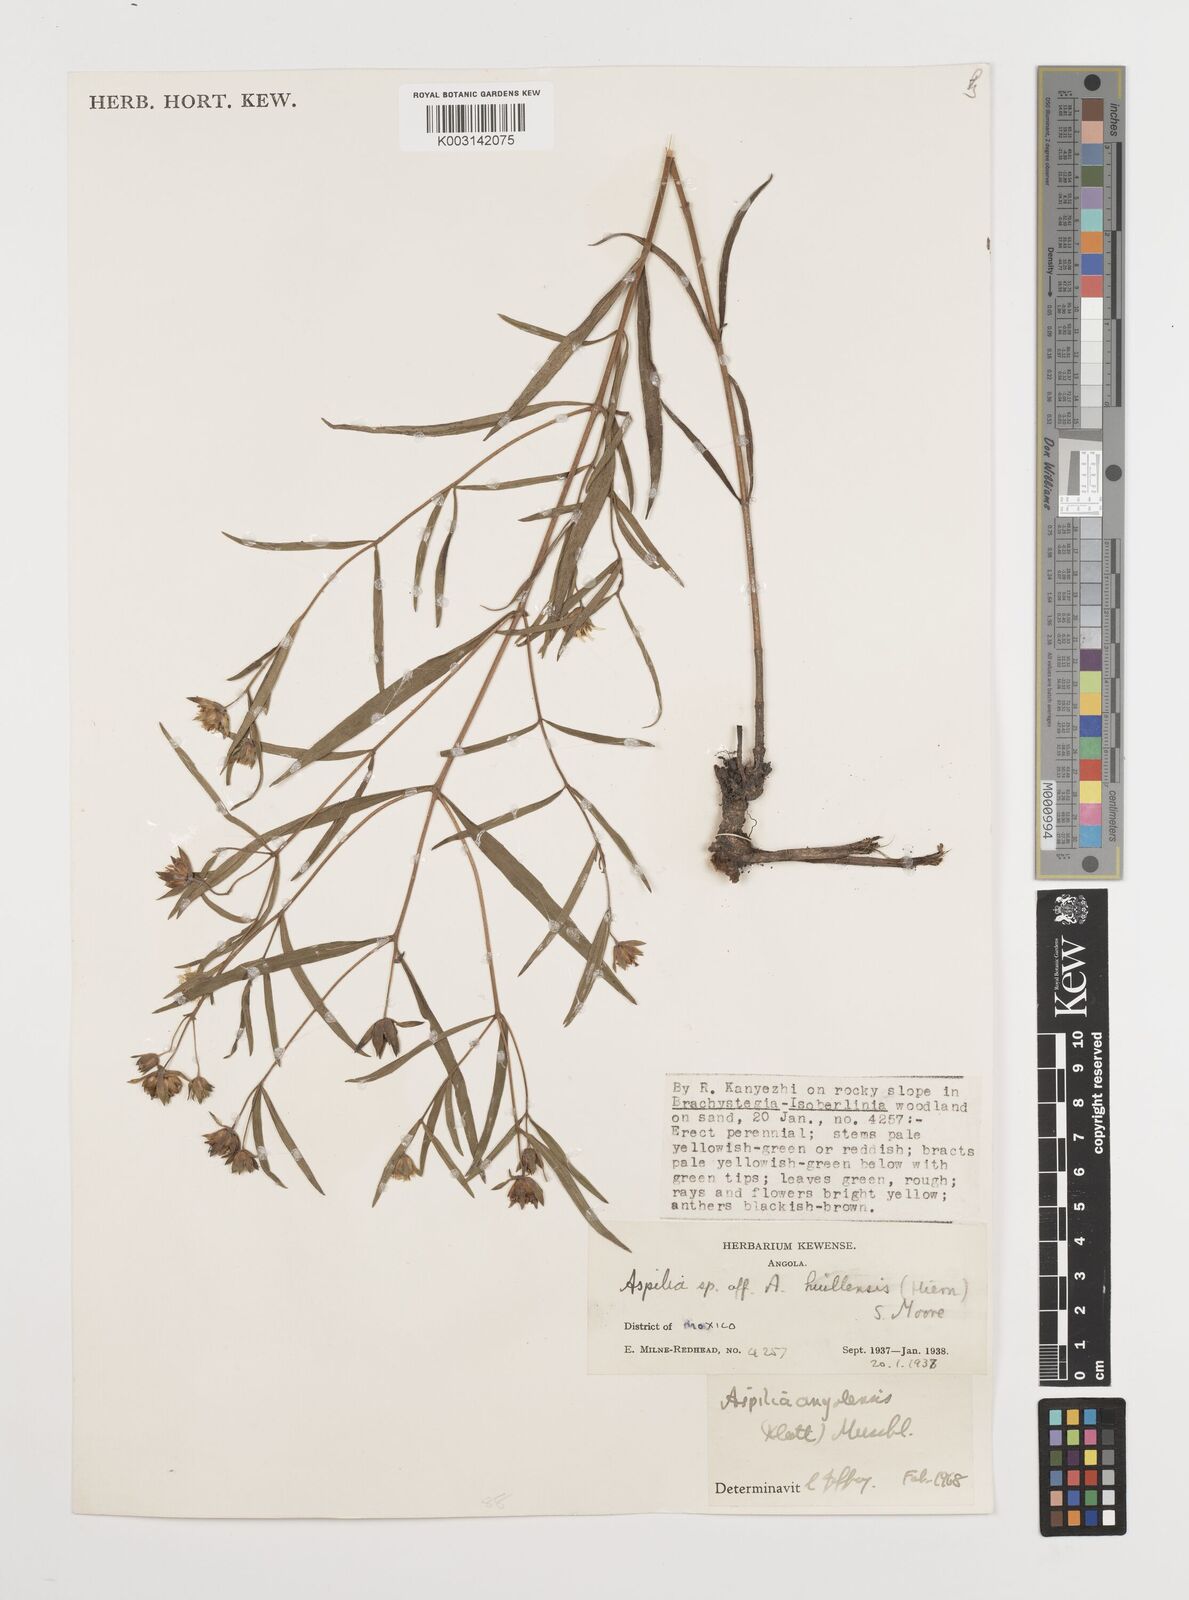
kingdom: Plantae
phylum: Tracheophyta
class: Magnoliopsida
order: Asterales
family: Asteraceae
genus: Aspilia
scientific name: Aspilia angolensis
